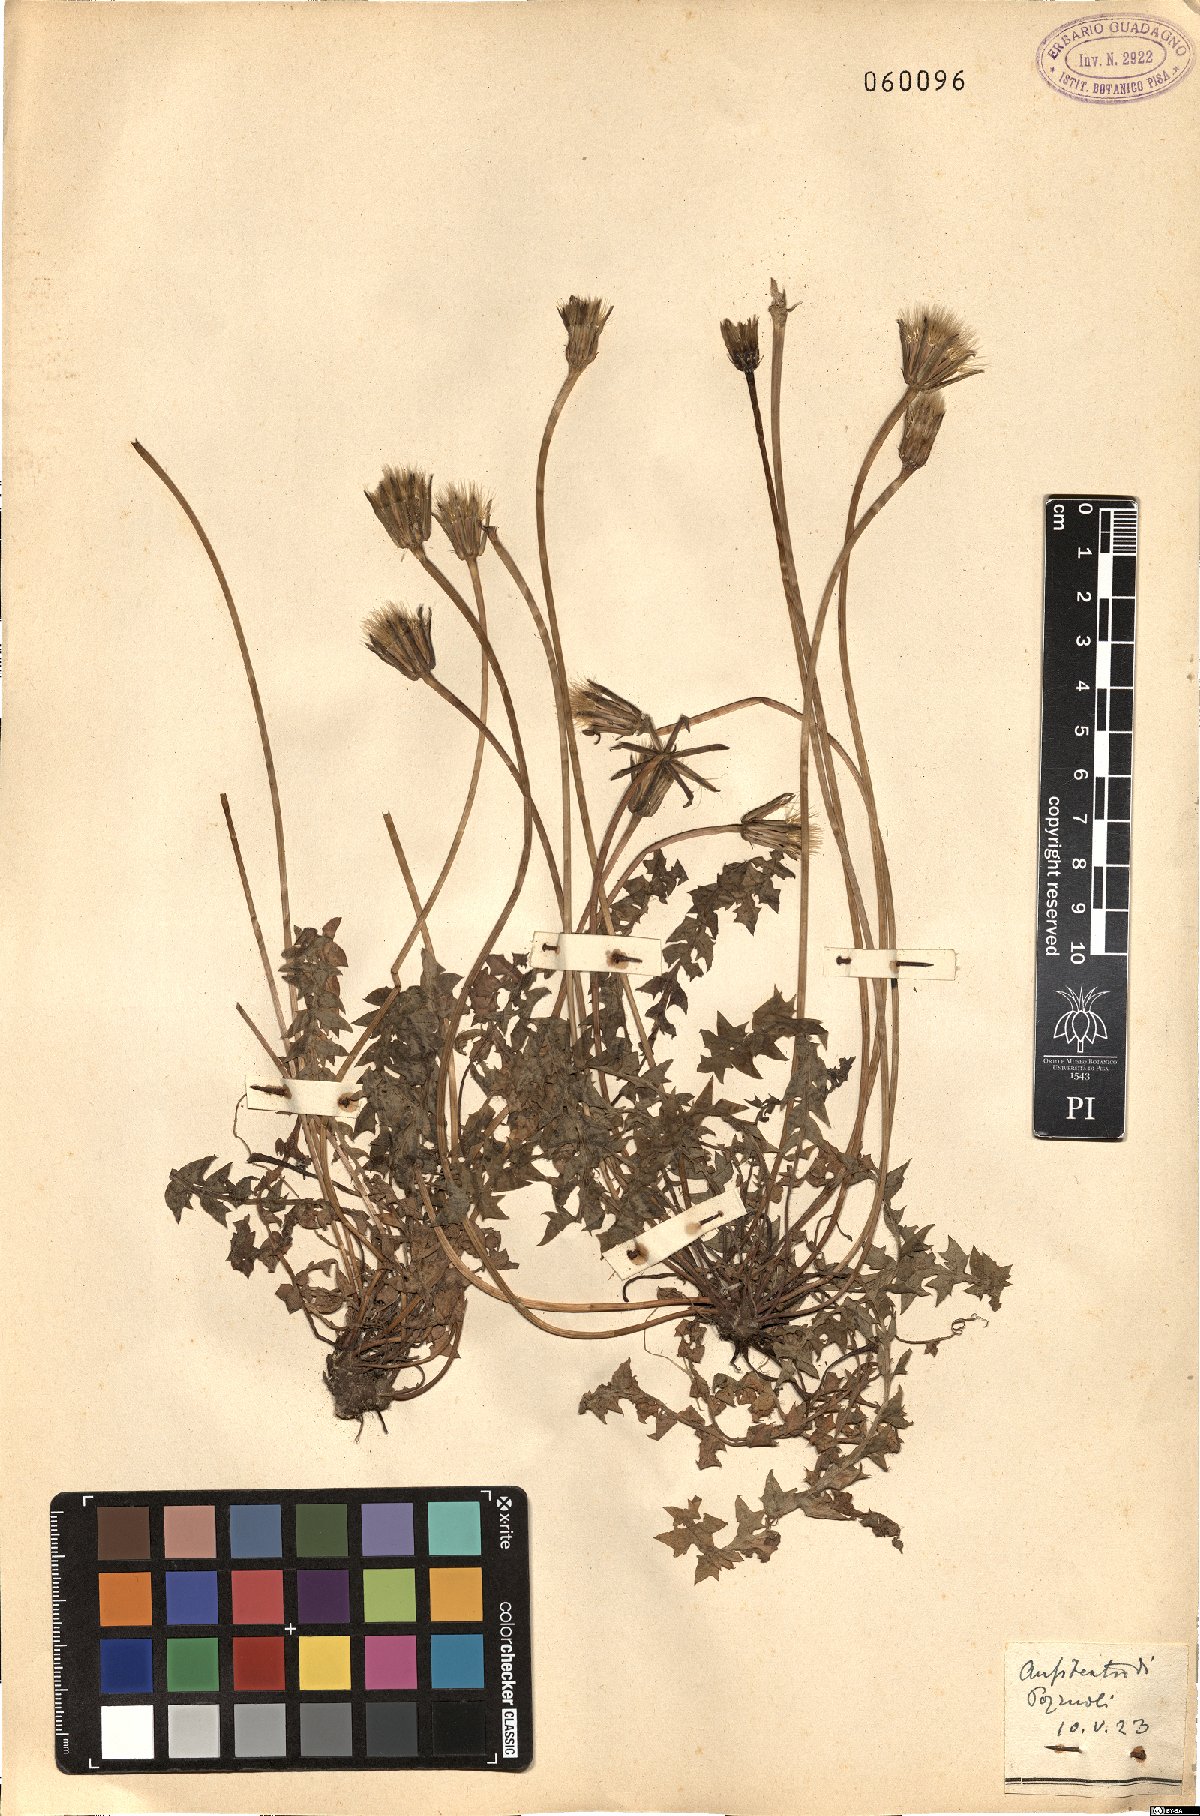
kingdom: Plantae
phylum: Tracheophyta
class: Magnoliopsida
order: Asterales
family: Asteraceae
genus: Hyoseris
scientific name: Hyoseris radiata
